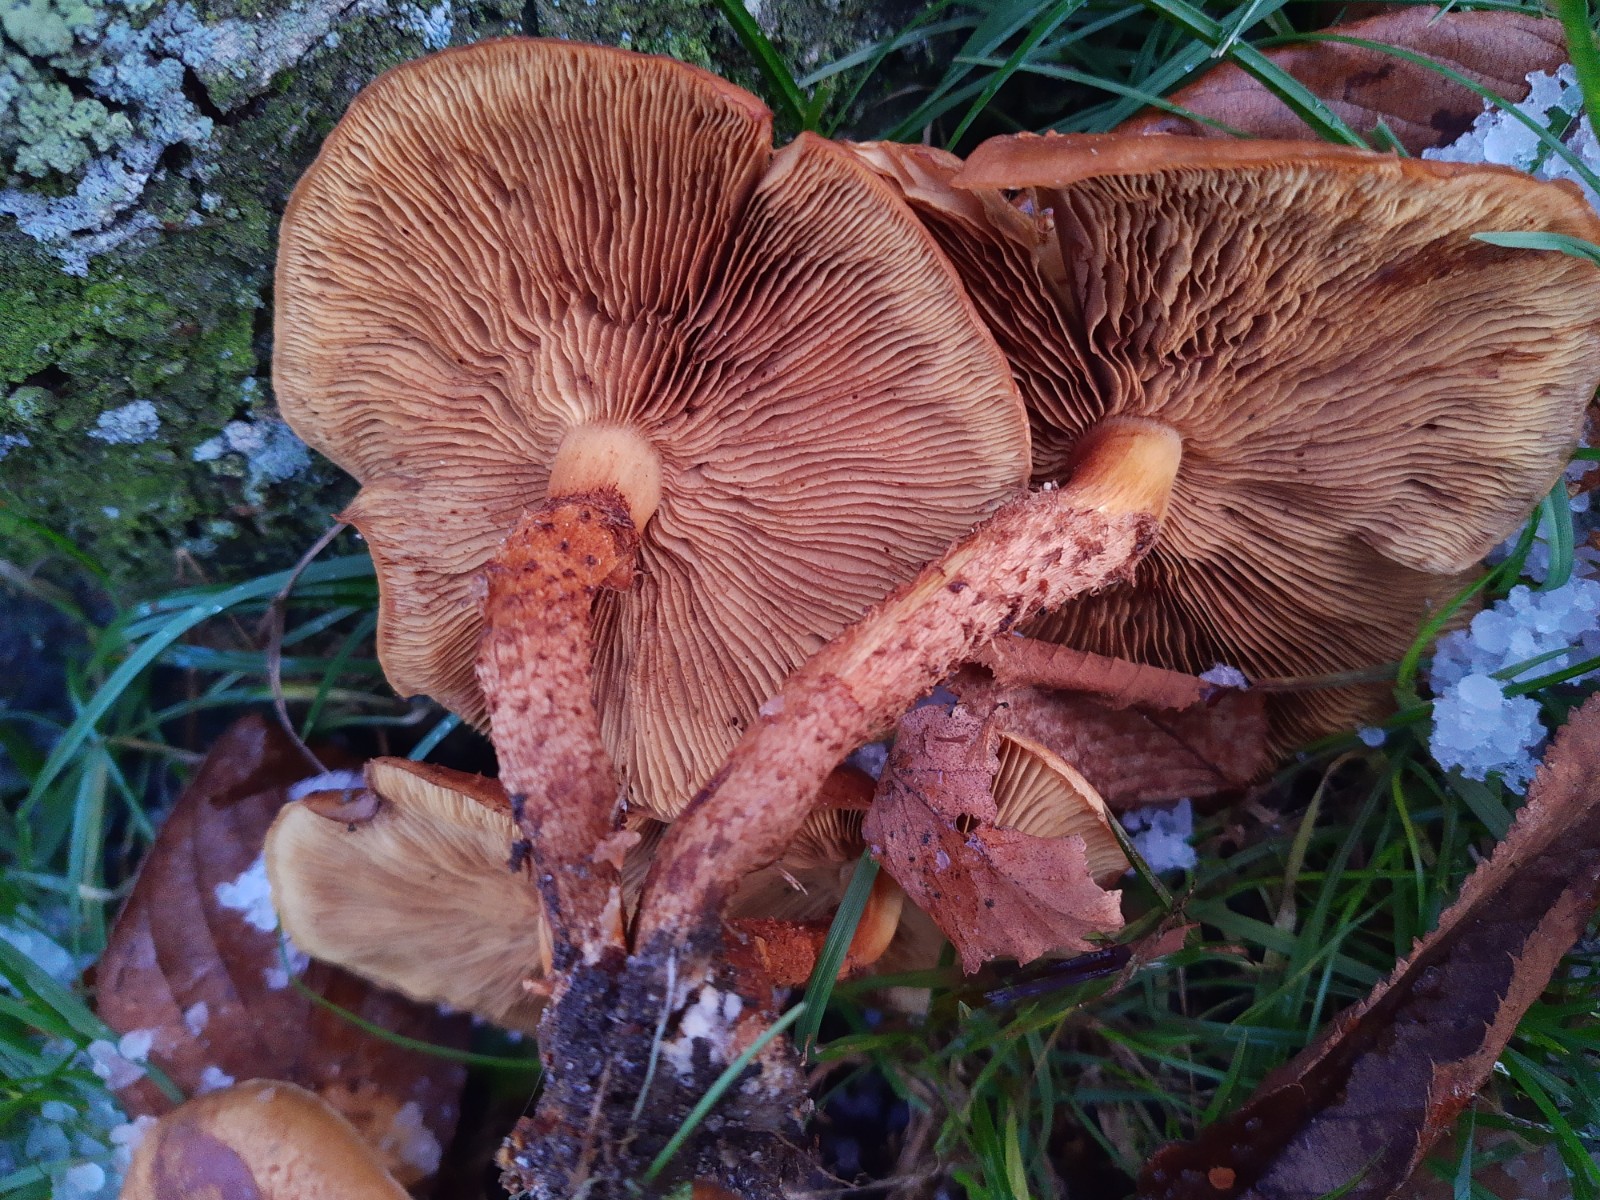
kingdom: Fungi
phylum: Basidiomycota
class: Agaricomycetes
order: Agaricales
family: Strophariaceae
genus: Pholiota
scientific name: Pholiota squarrosa
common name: krumskællet skælhat
